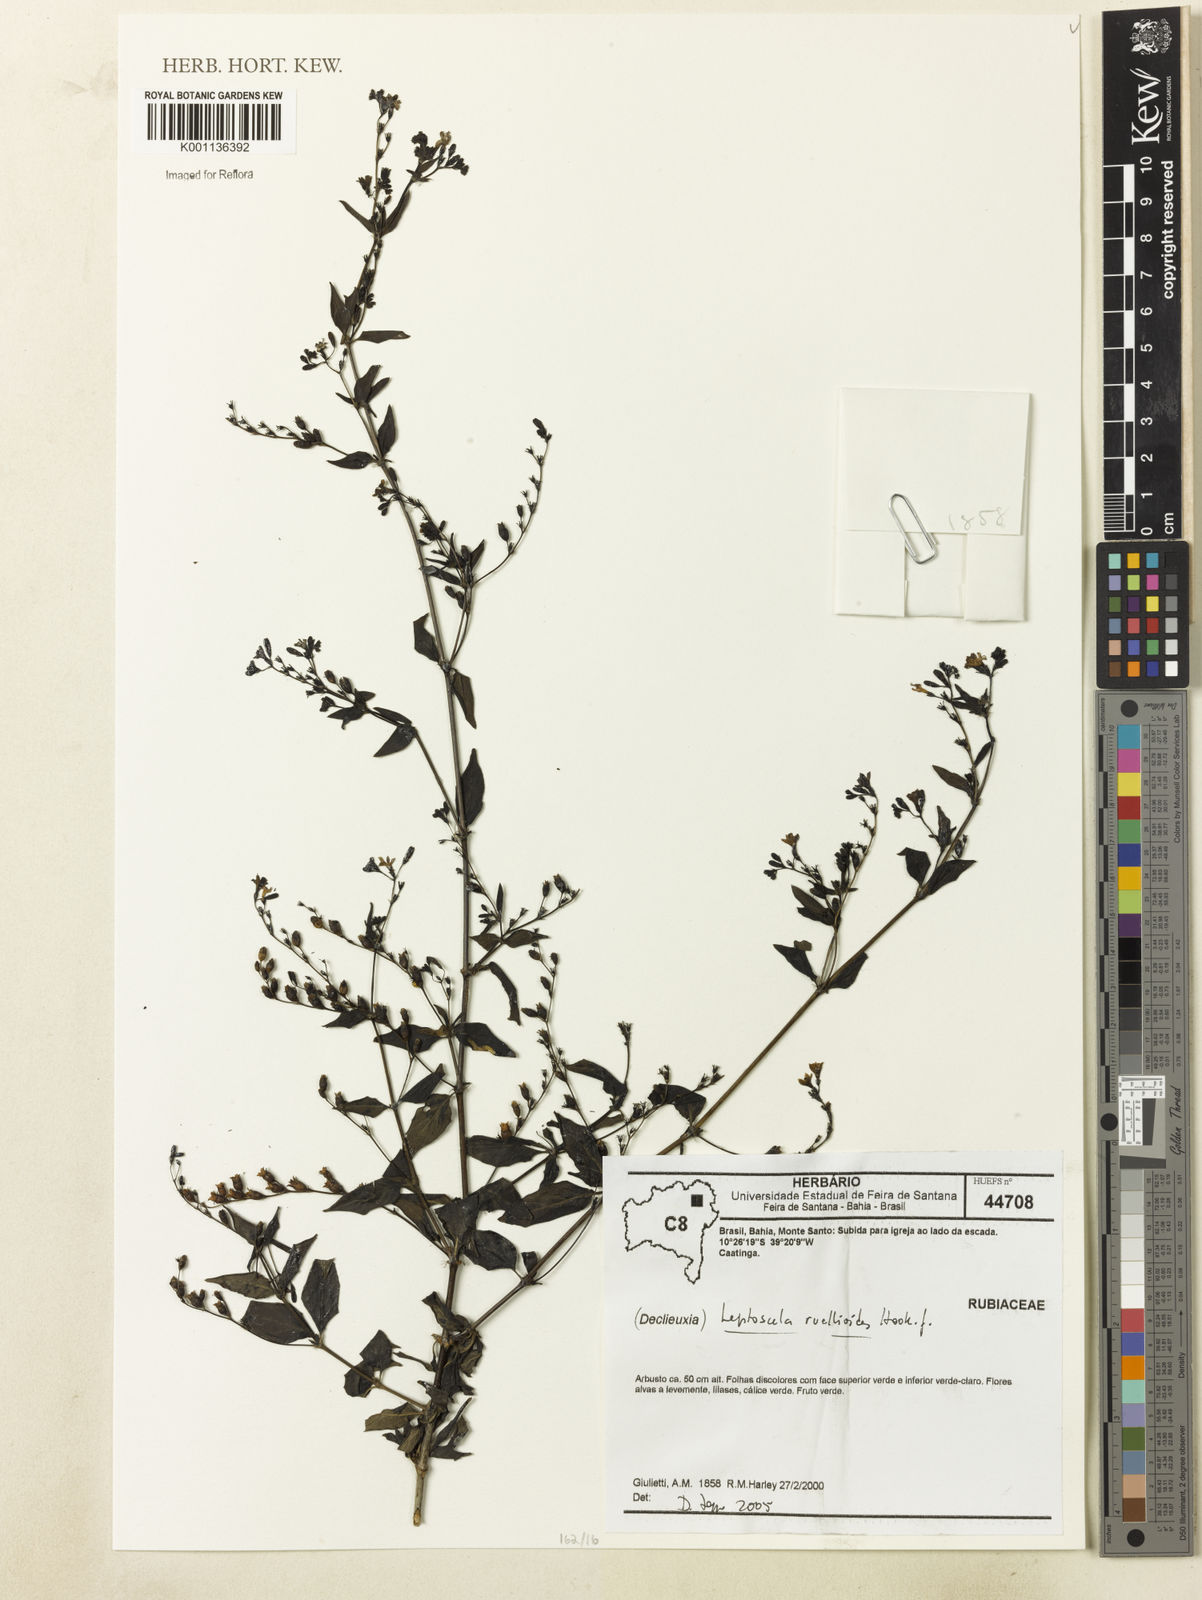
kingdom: Plantae
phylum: Tracheophyta
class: Magnoliopsida
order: Gentianales
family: Rubiaceae
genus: Leptoscela
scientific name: Leptoscela ruellioides
